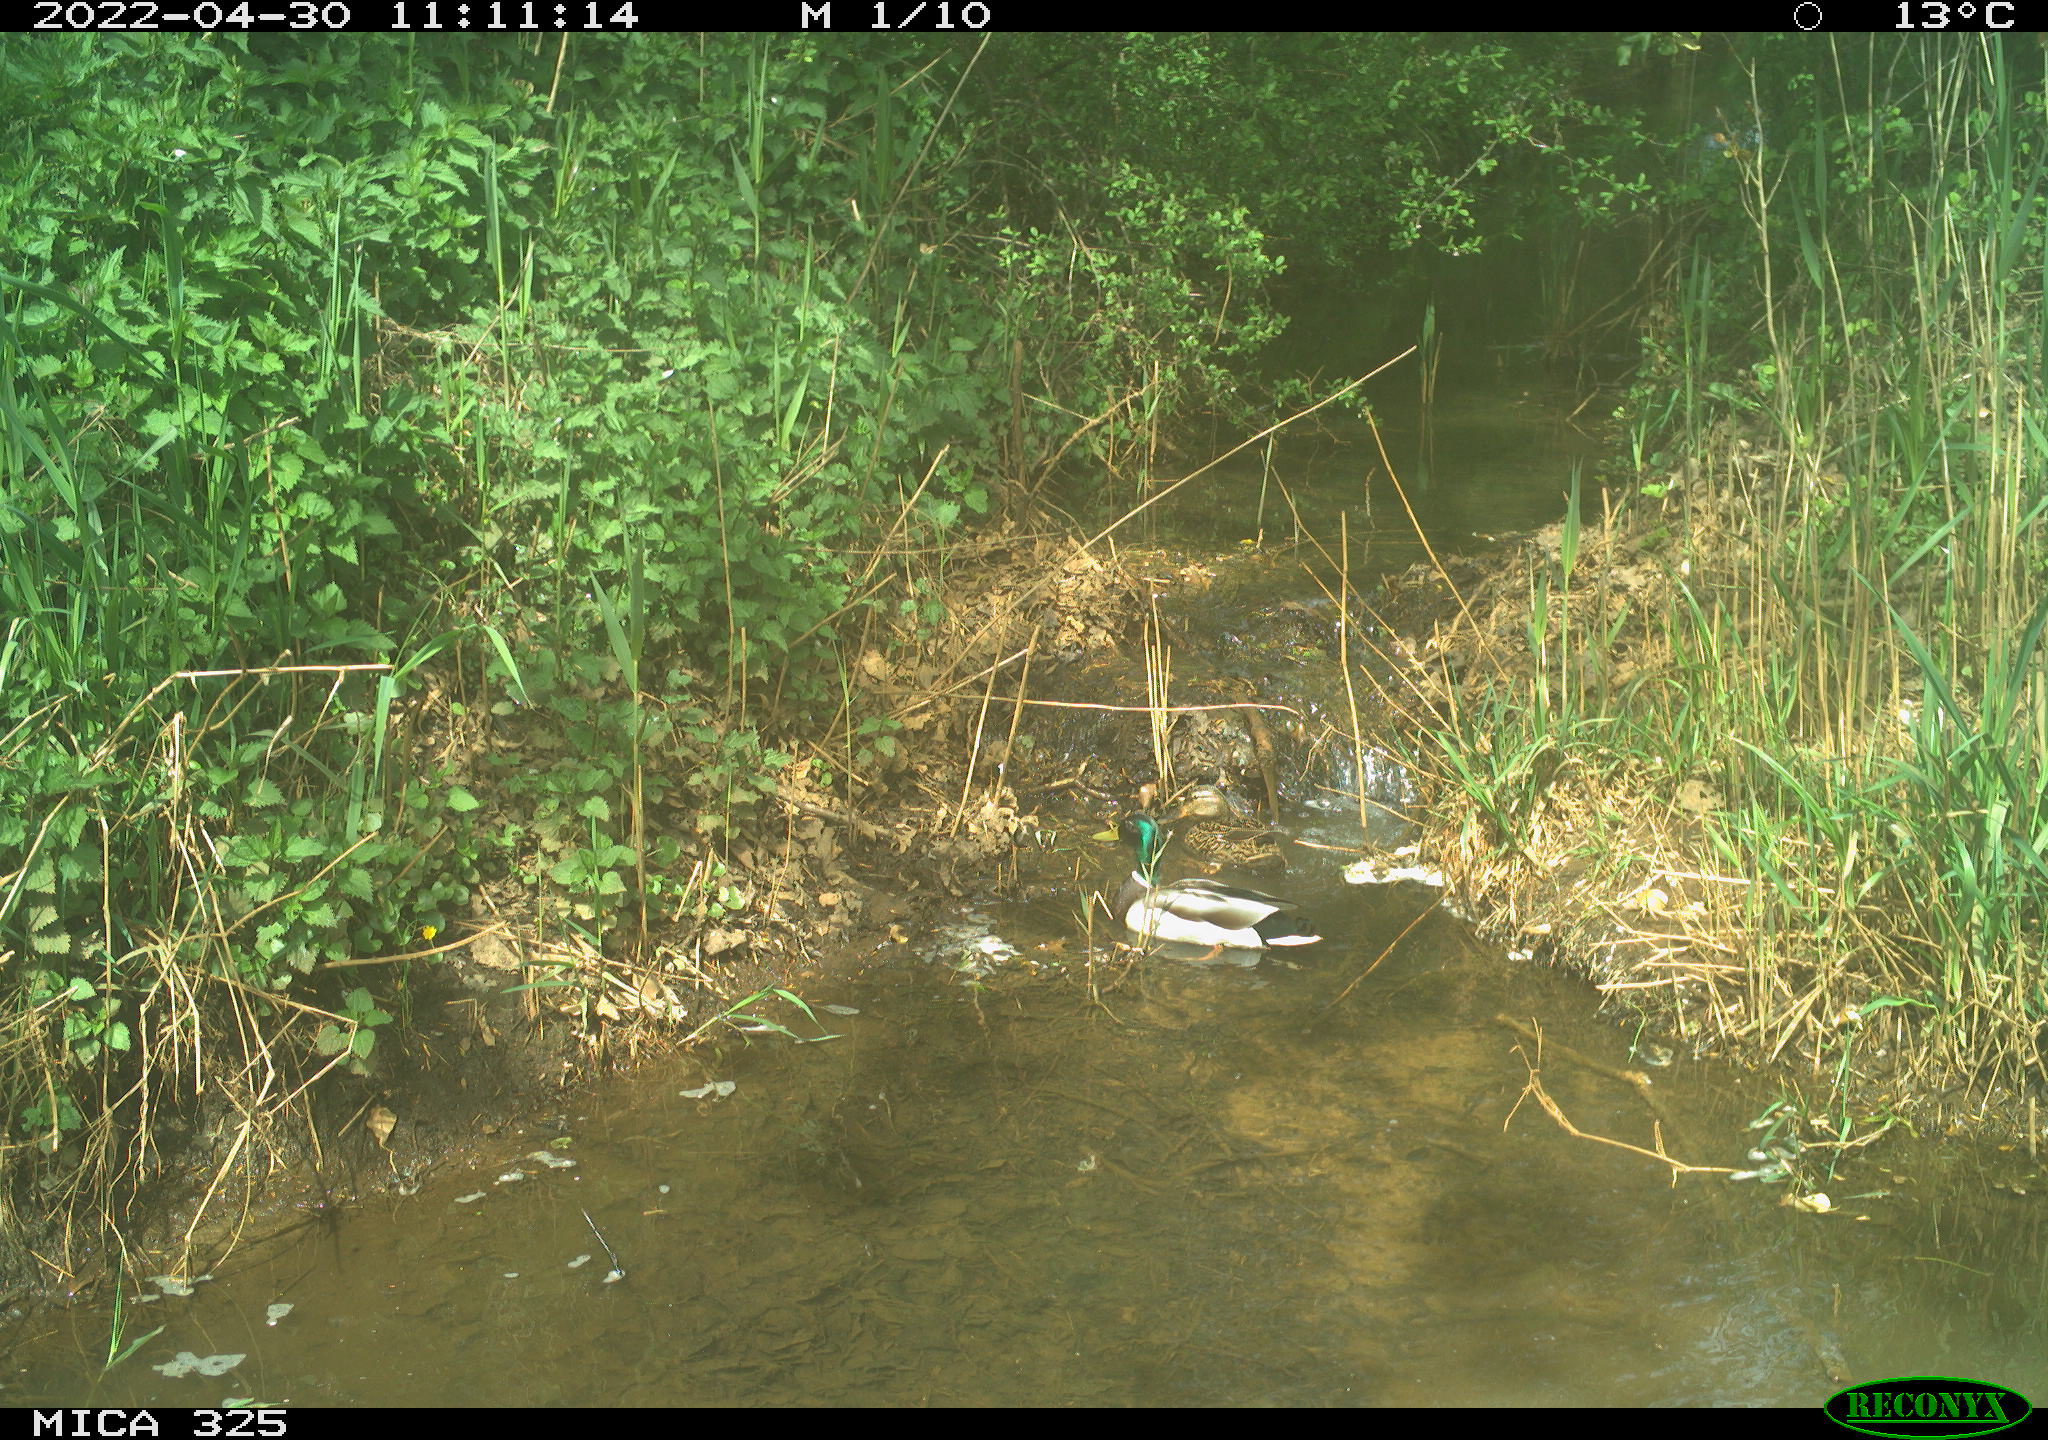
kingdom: Animalia
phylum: Chordata
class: Aves
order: Anseriformes
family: Anatidae
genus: Anas
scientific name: Anas platyrhynchos
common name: Mallard
